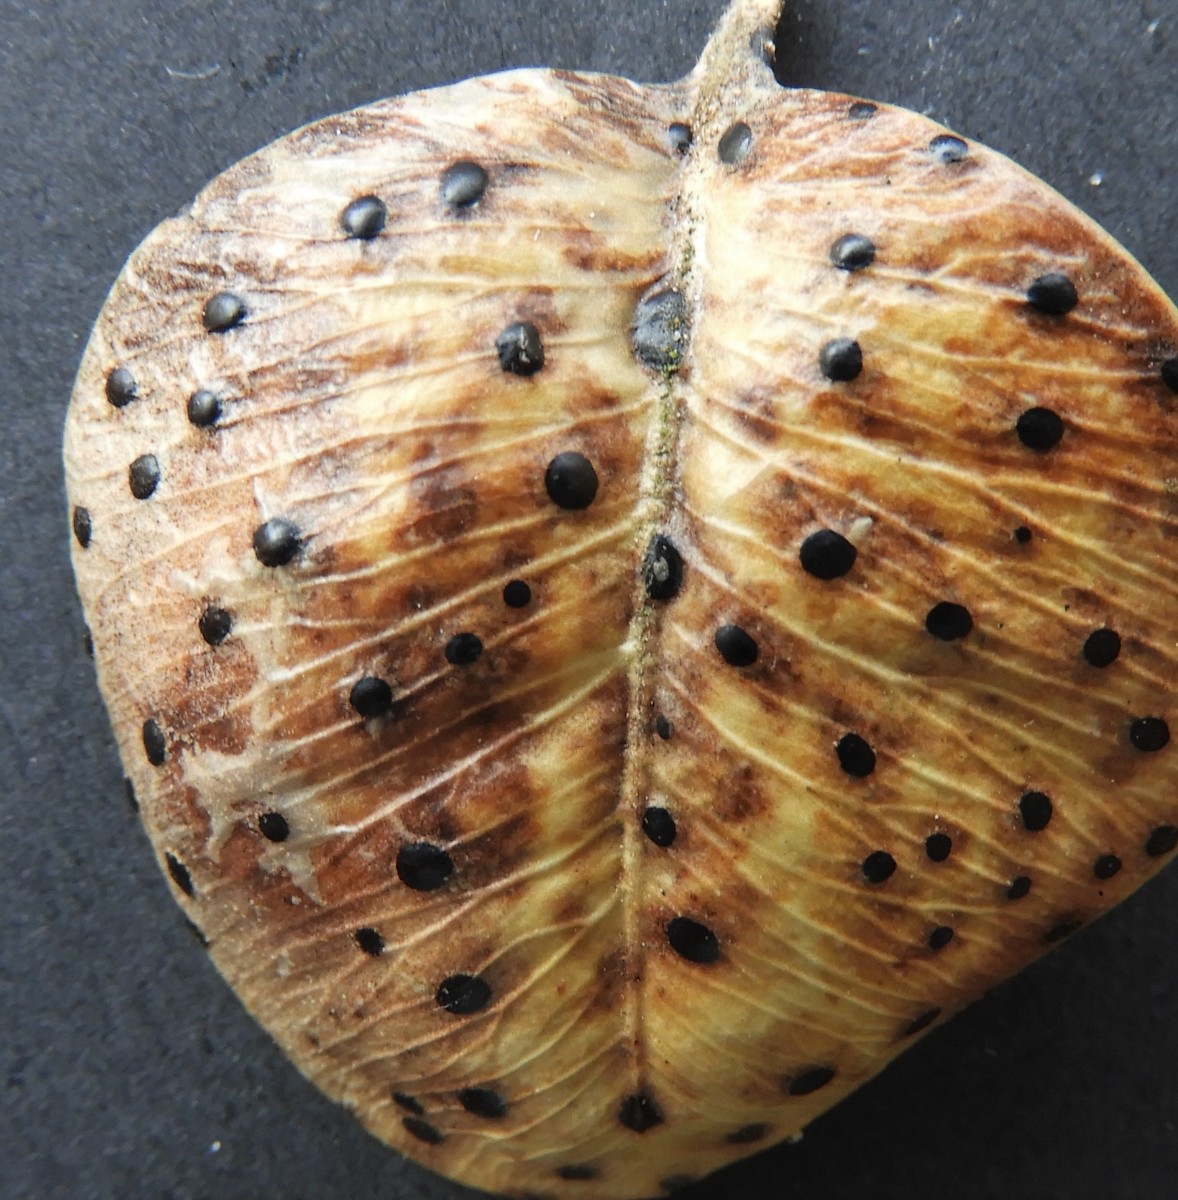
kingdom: Fungi
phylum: Ascomycota
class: Sordariomycetes
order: Diaporthales
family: Diaporthaceae
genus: Diaporthe
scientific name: Diaporthe stictica
